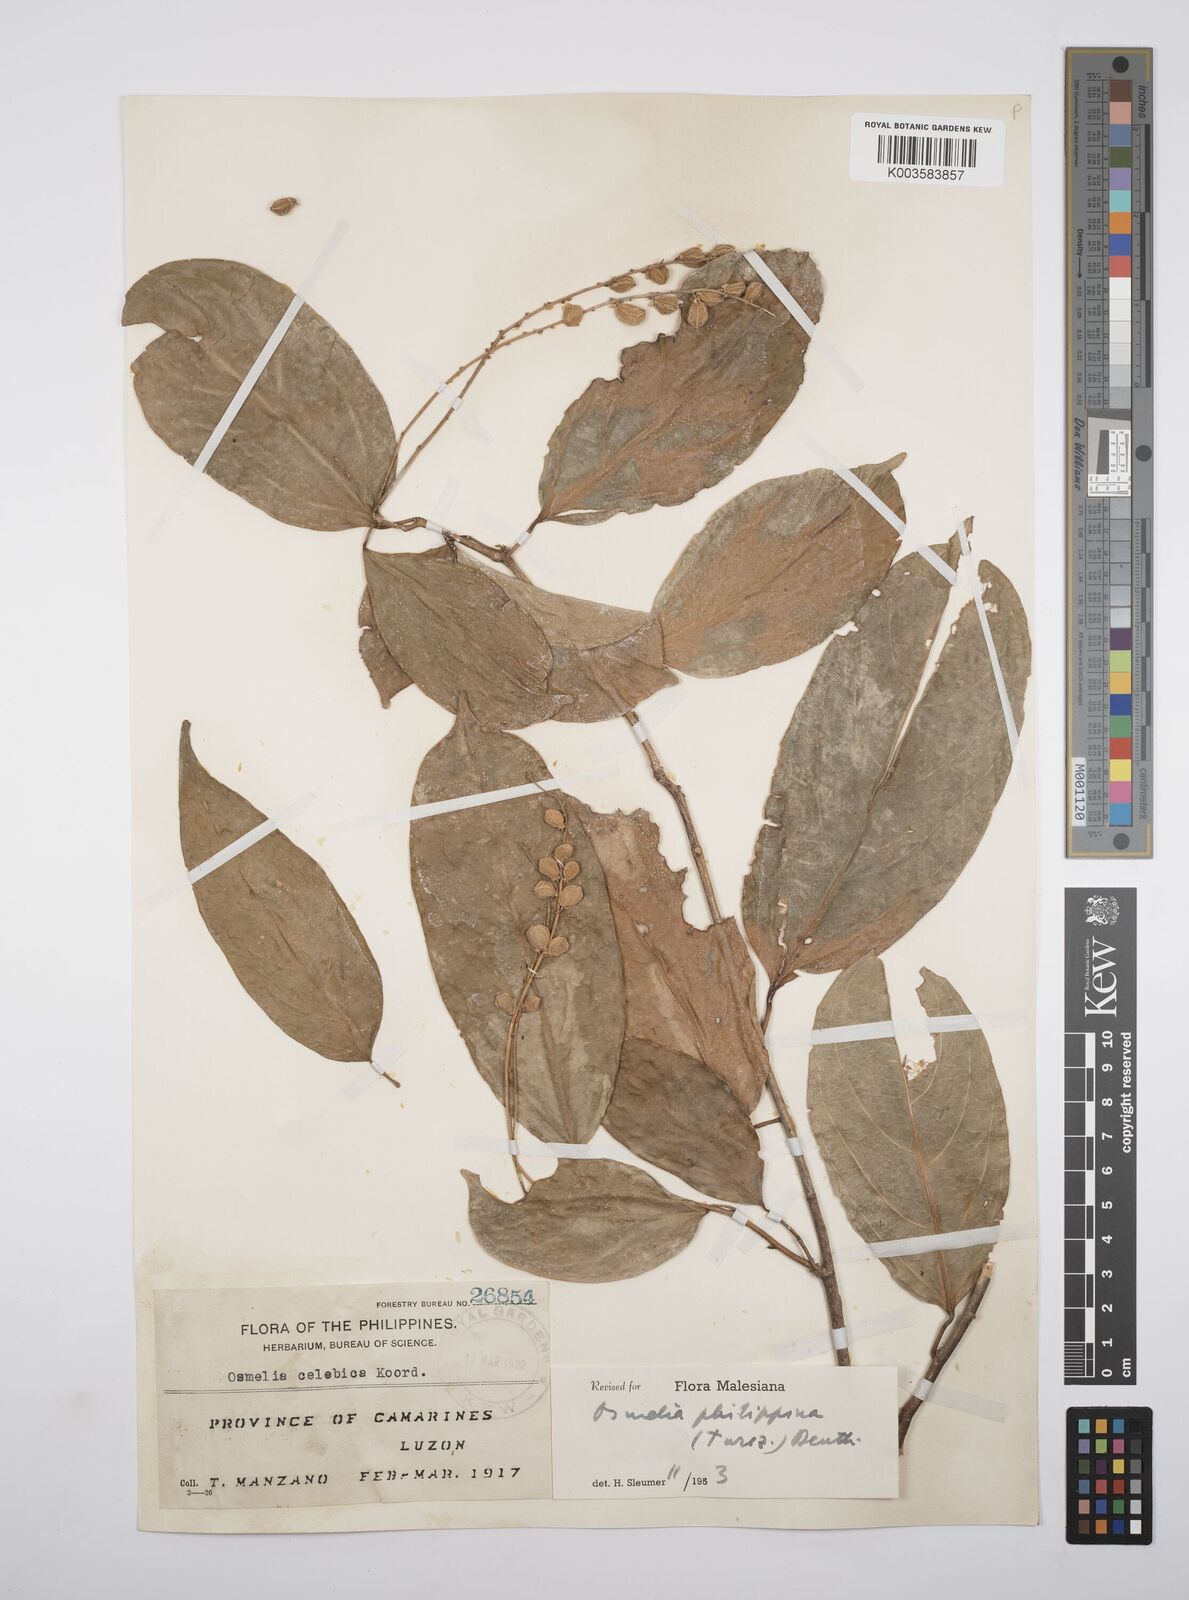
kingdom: Plantae
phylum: Tracheophyta
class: Magnoliopsida
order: Malpighiales
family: Salicaceae
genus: Osmelia
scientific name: Osmelia philippina
